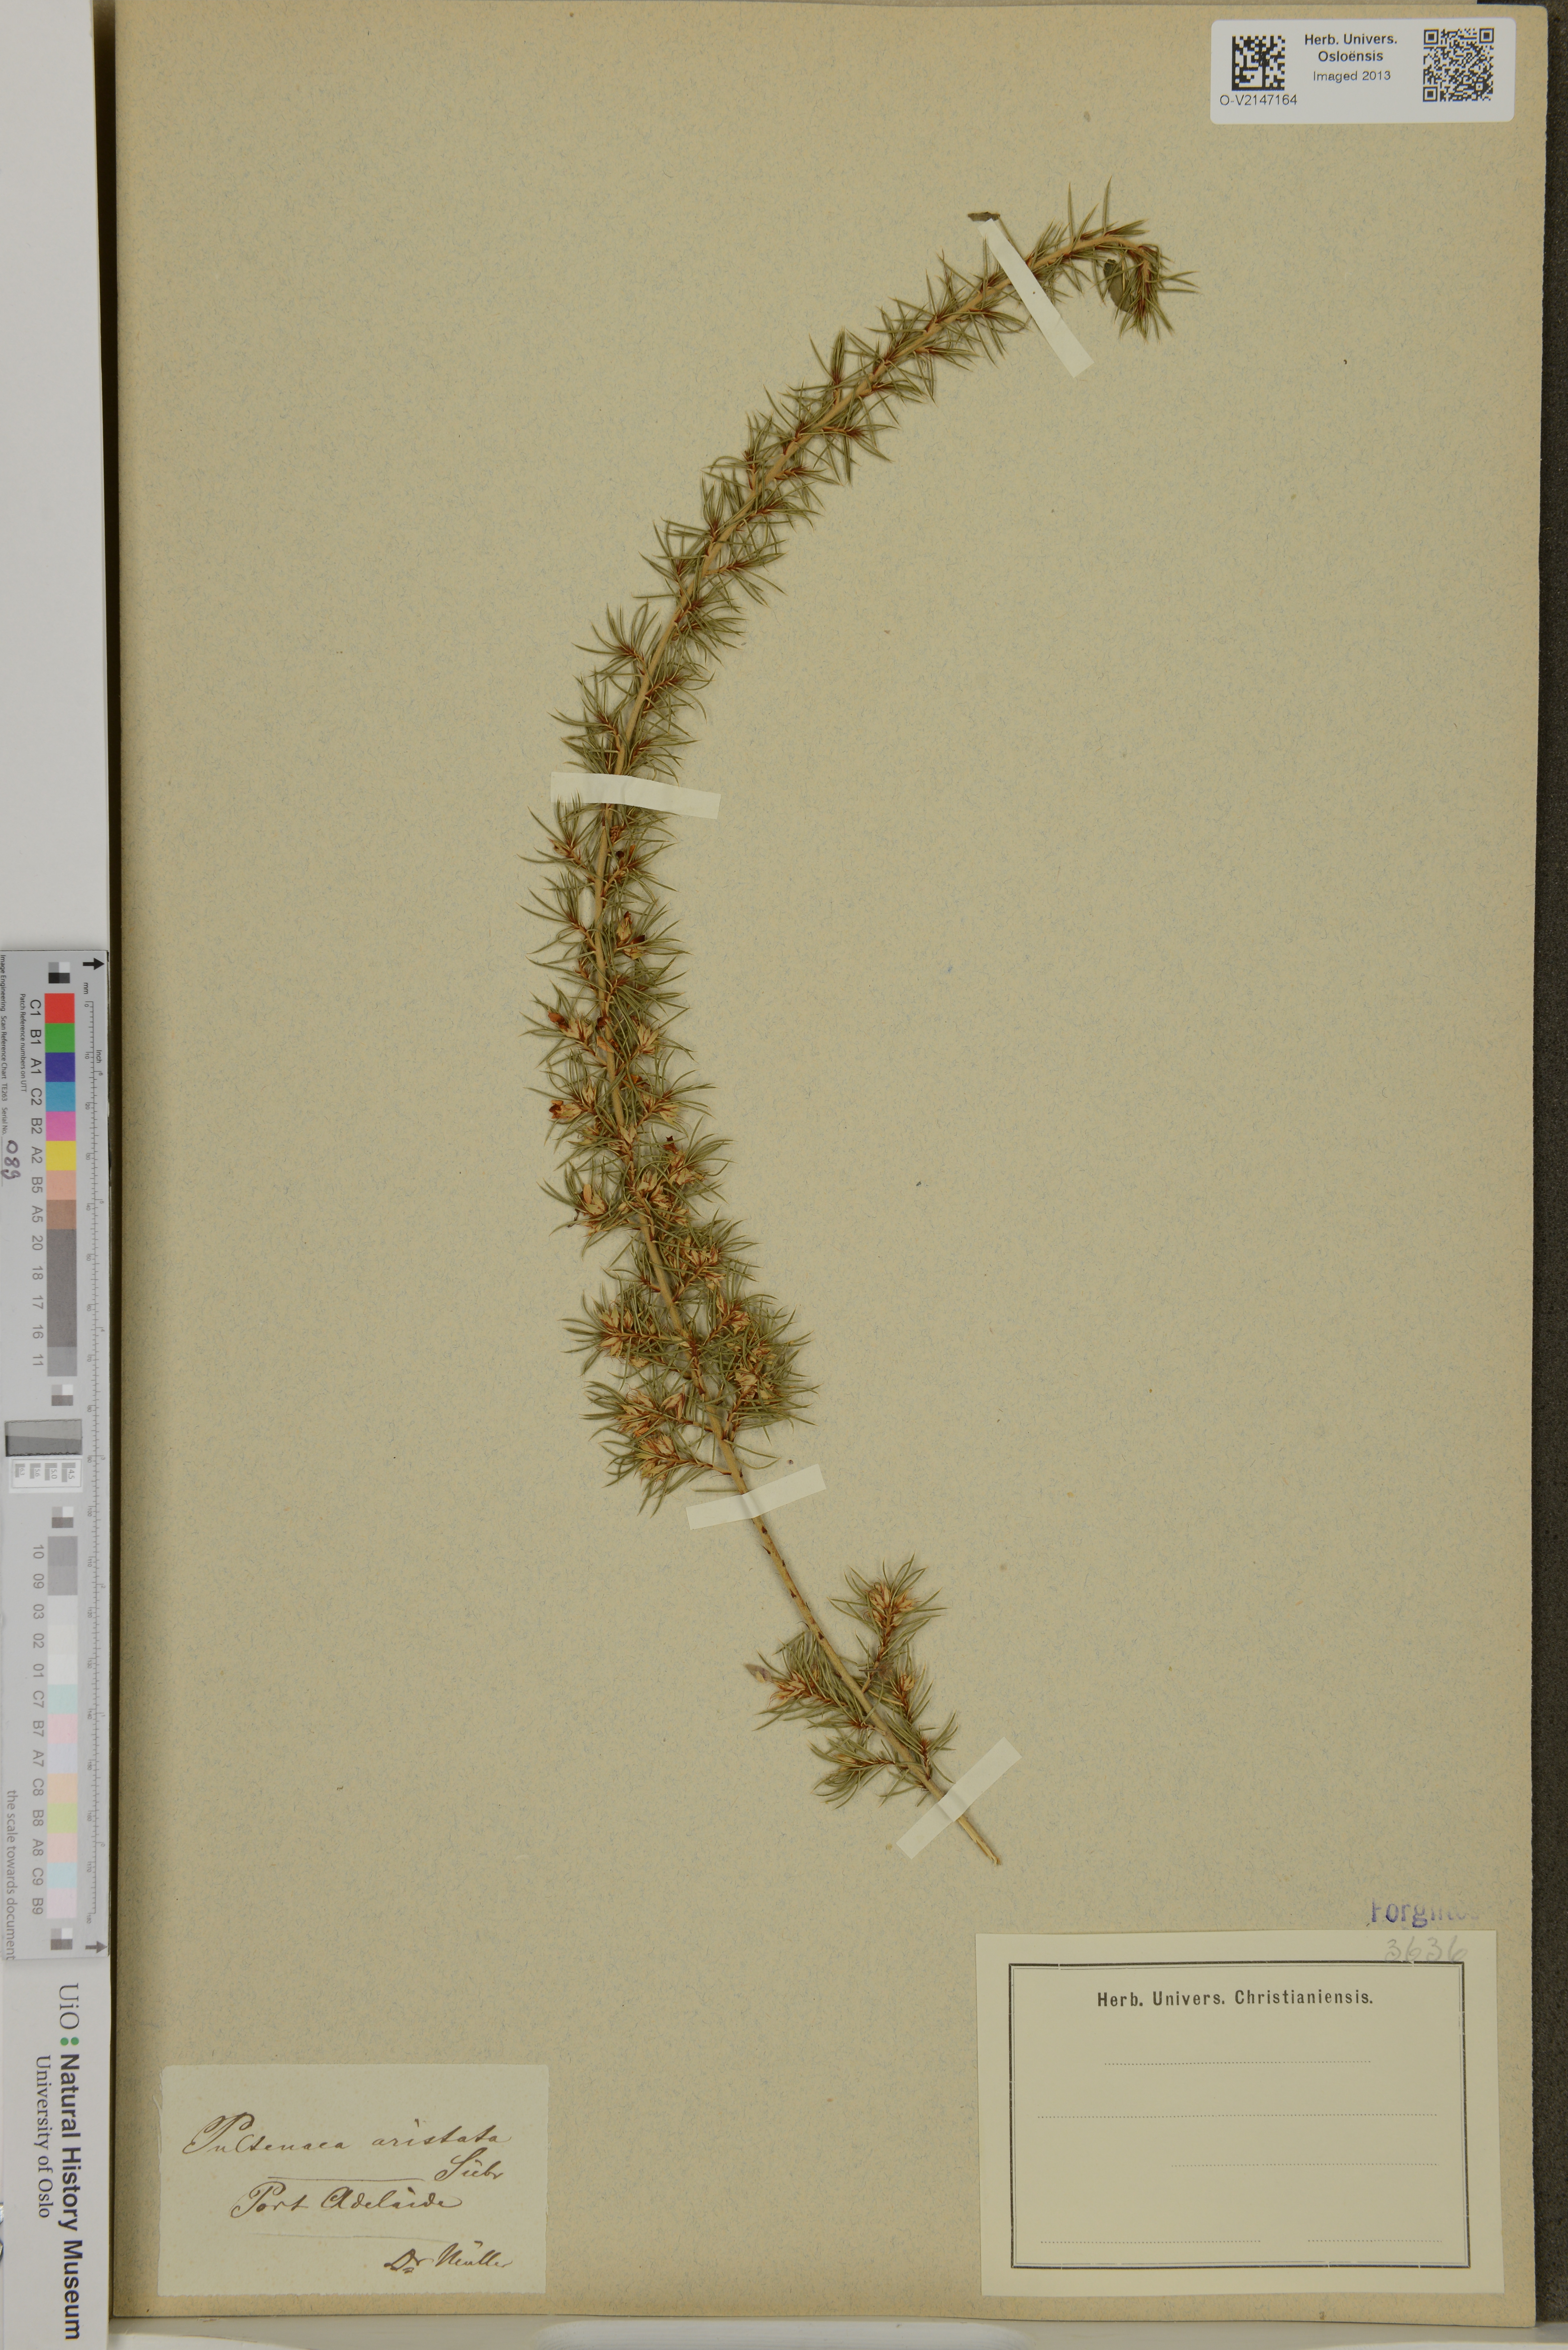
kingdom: Plantae
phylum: Tracheophyta
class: Magnoliopsida
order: Fabales
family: Fabaceae
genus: Pultenaea
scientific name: Pultenaea aristata
